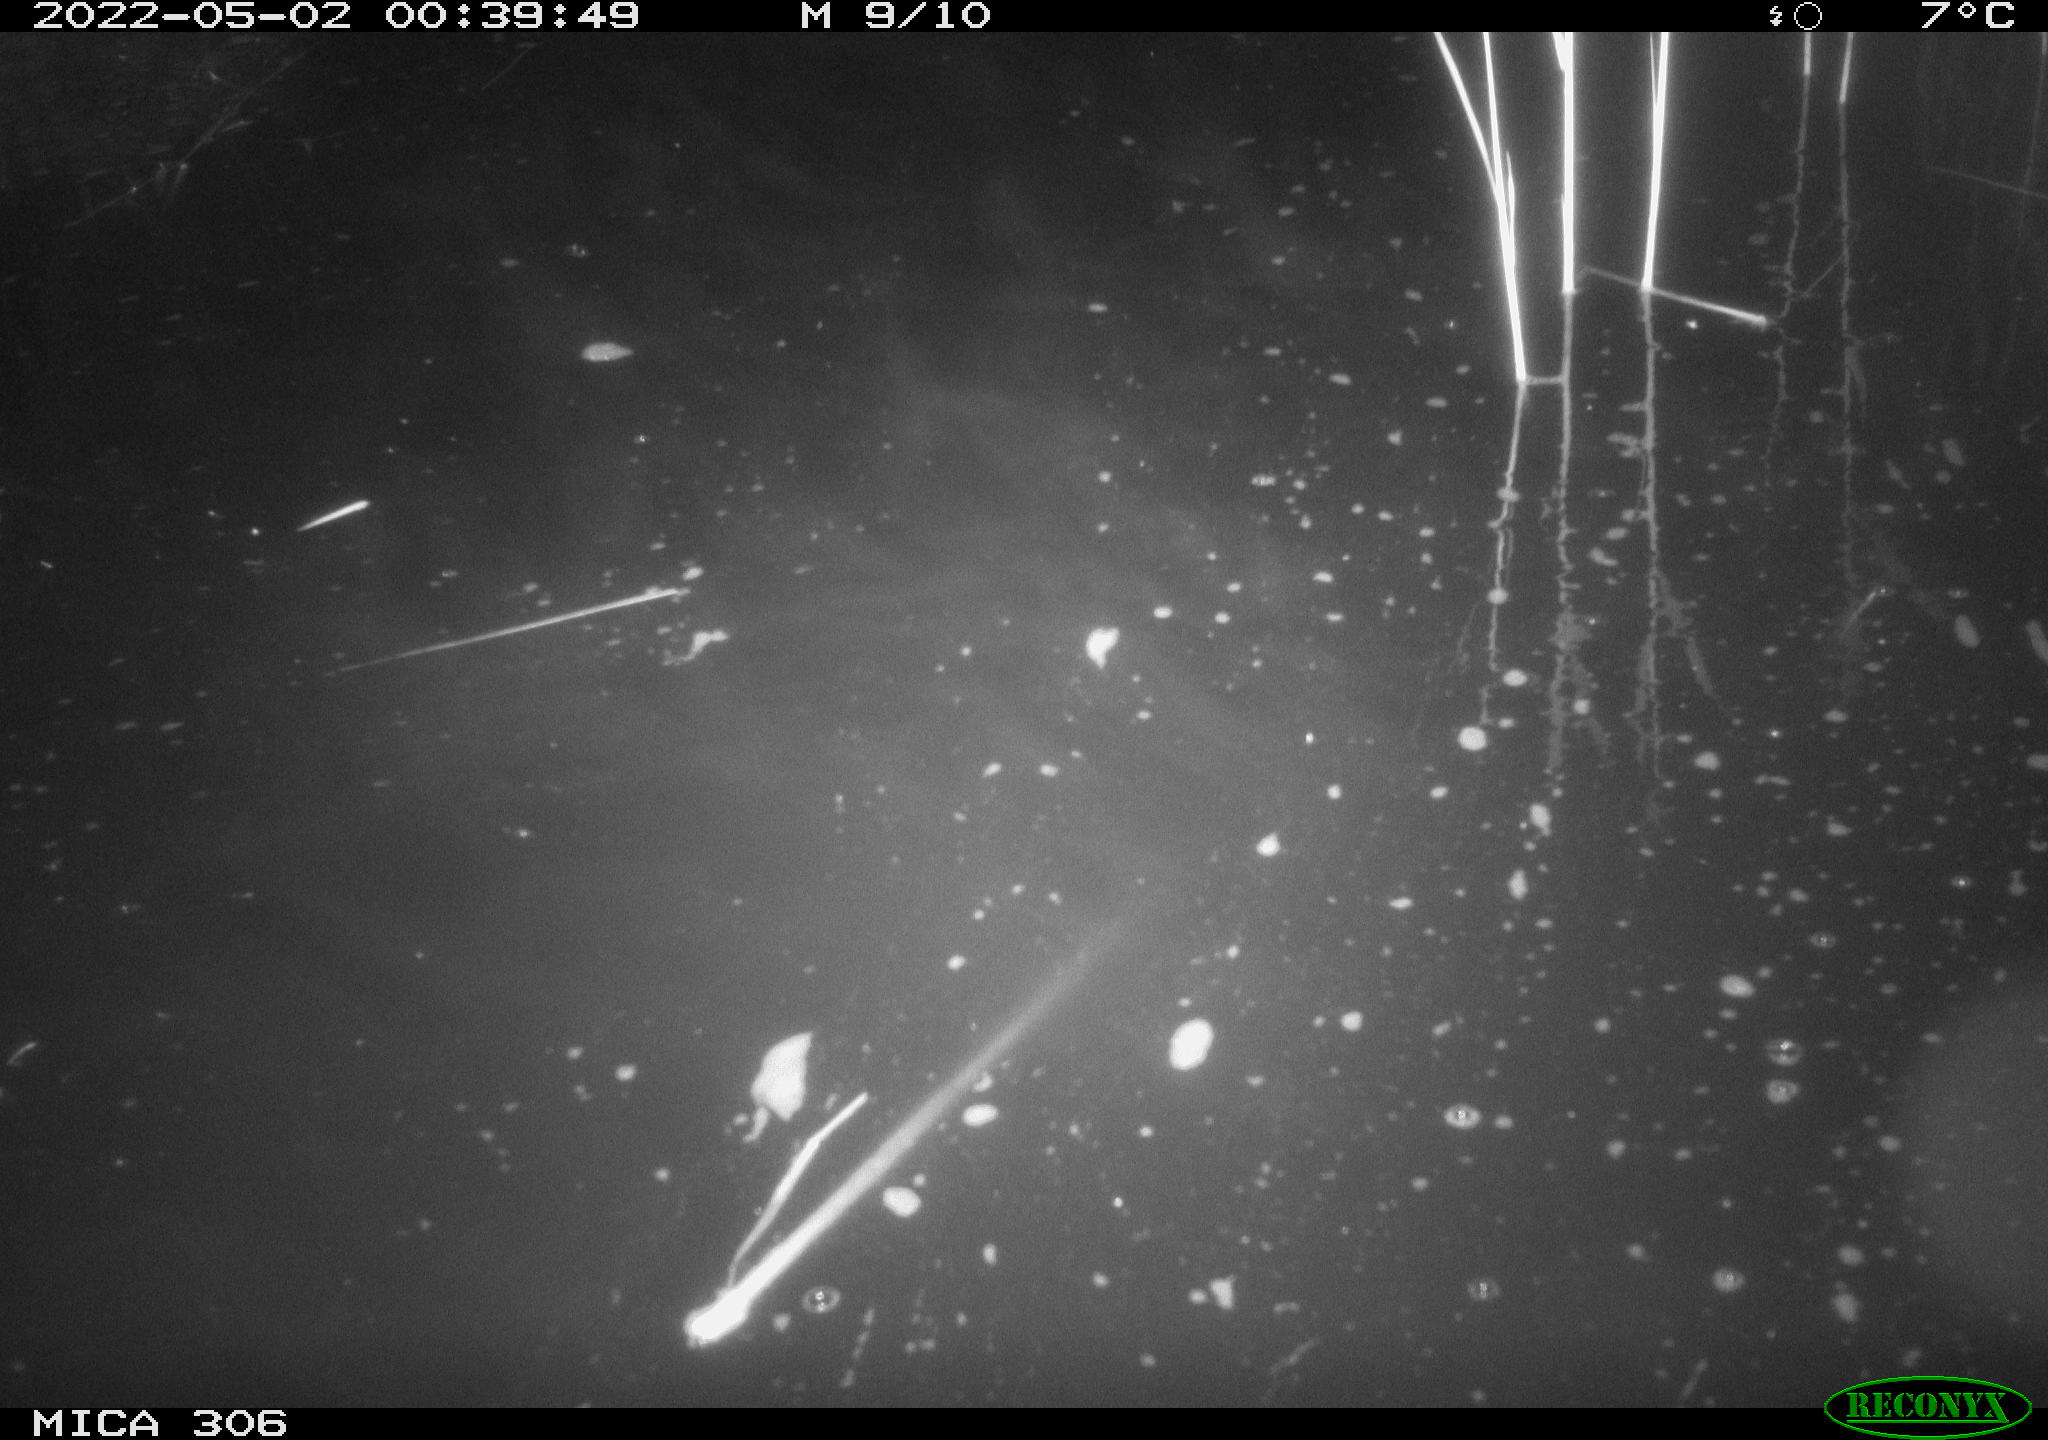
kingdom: Animalia
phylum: Chordata
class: Mammalia
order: Rodentia
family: Cricetidae
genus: Ondatra
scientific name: Ondatra zibethicus
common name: Muskrat
